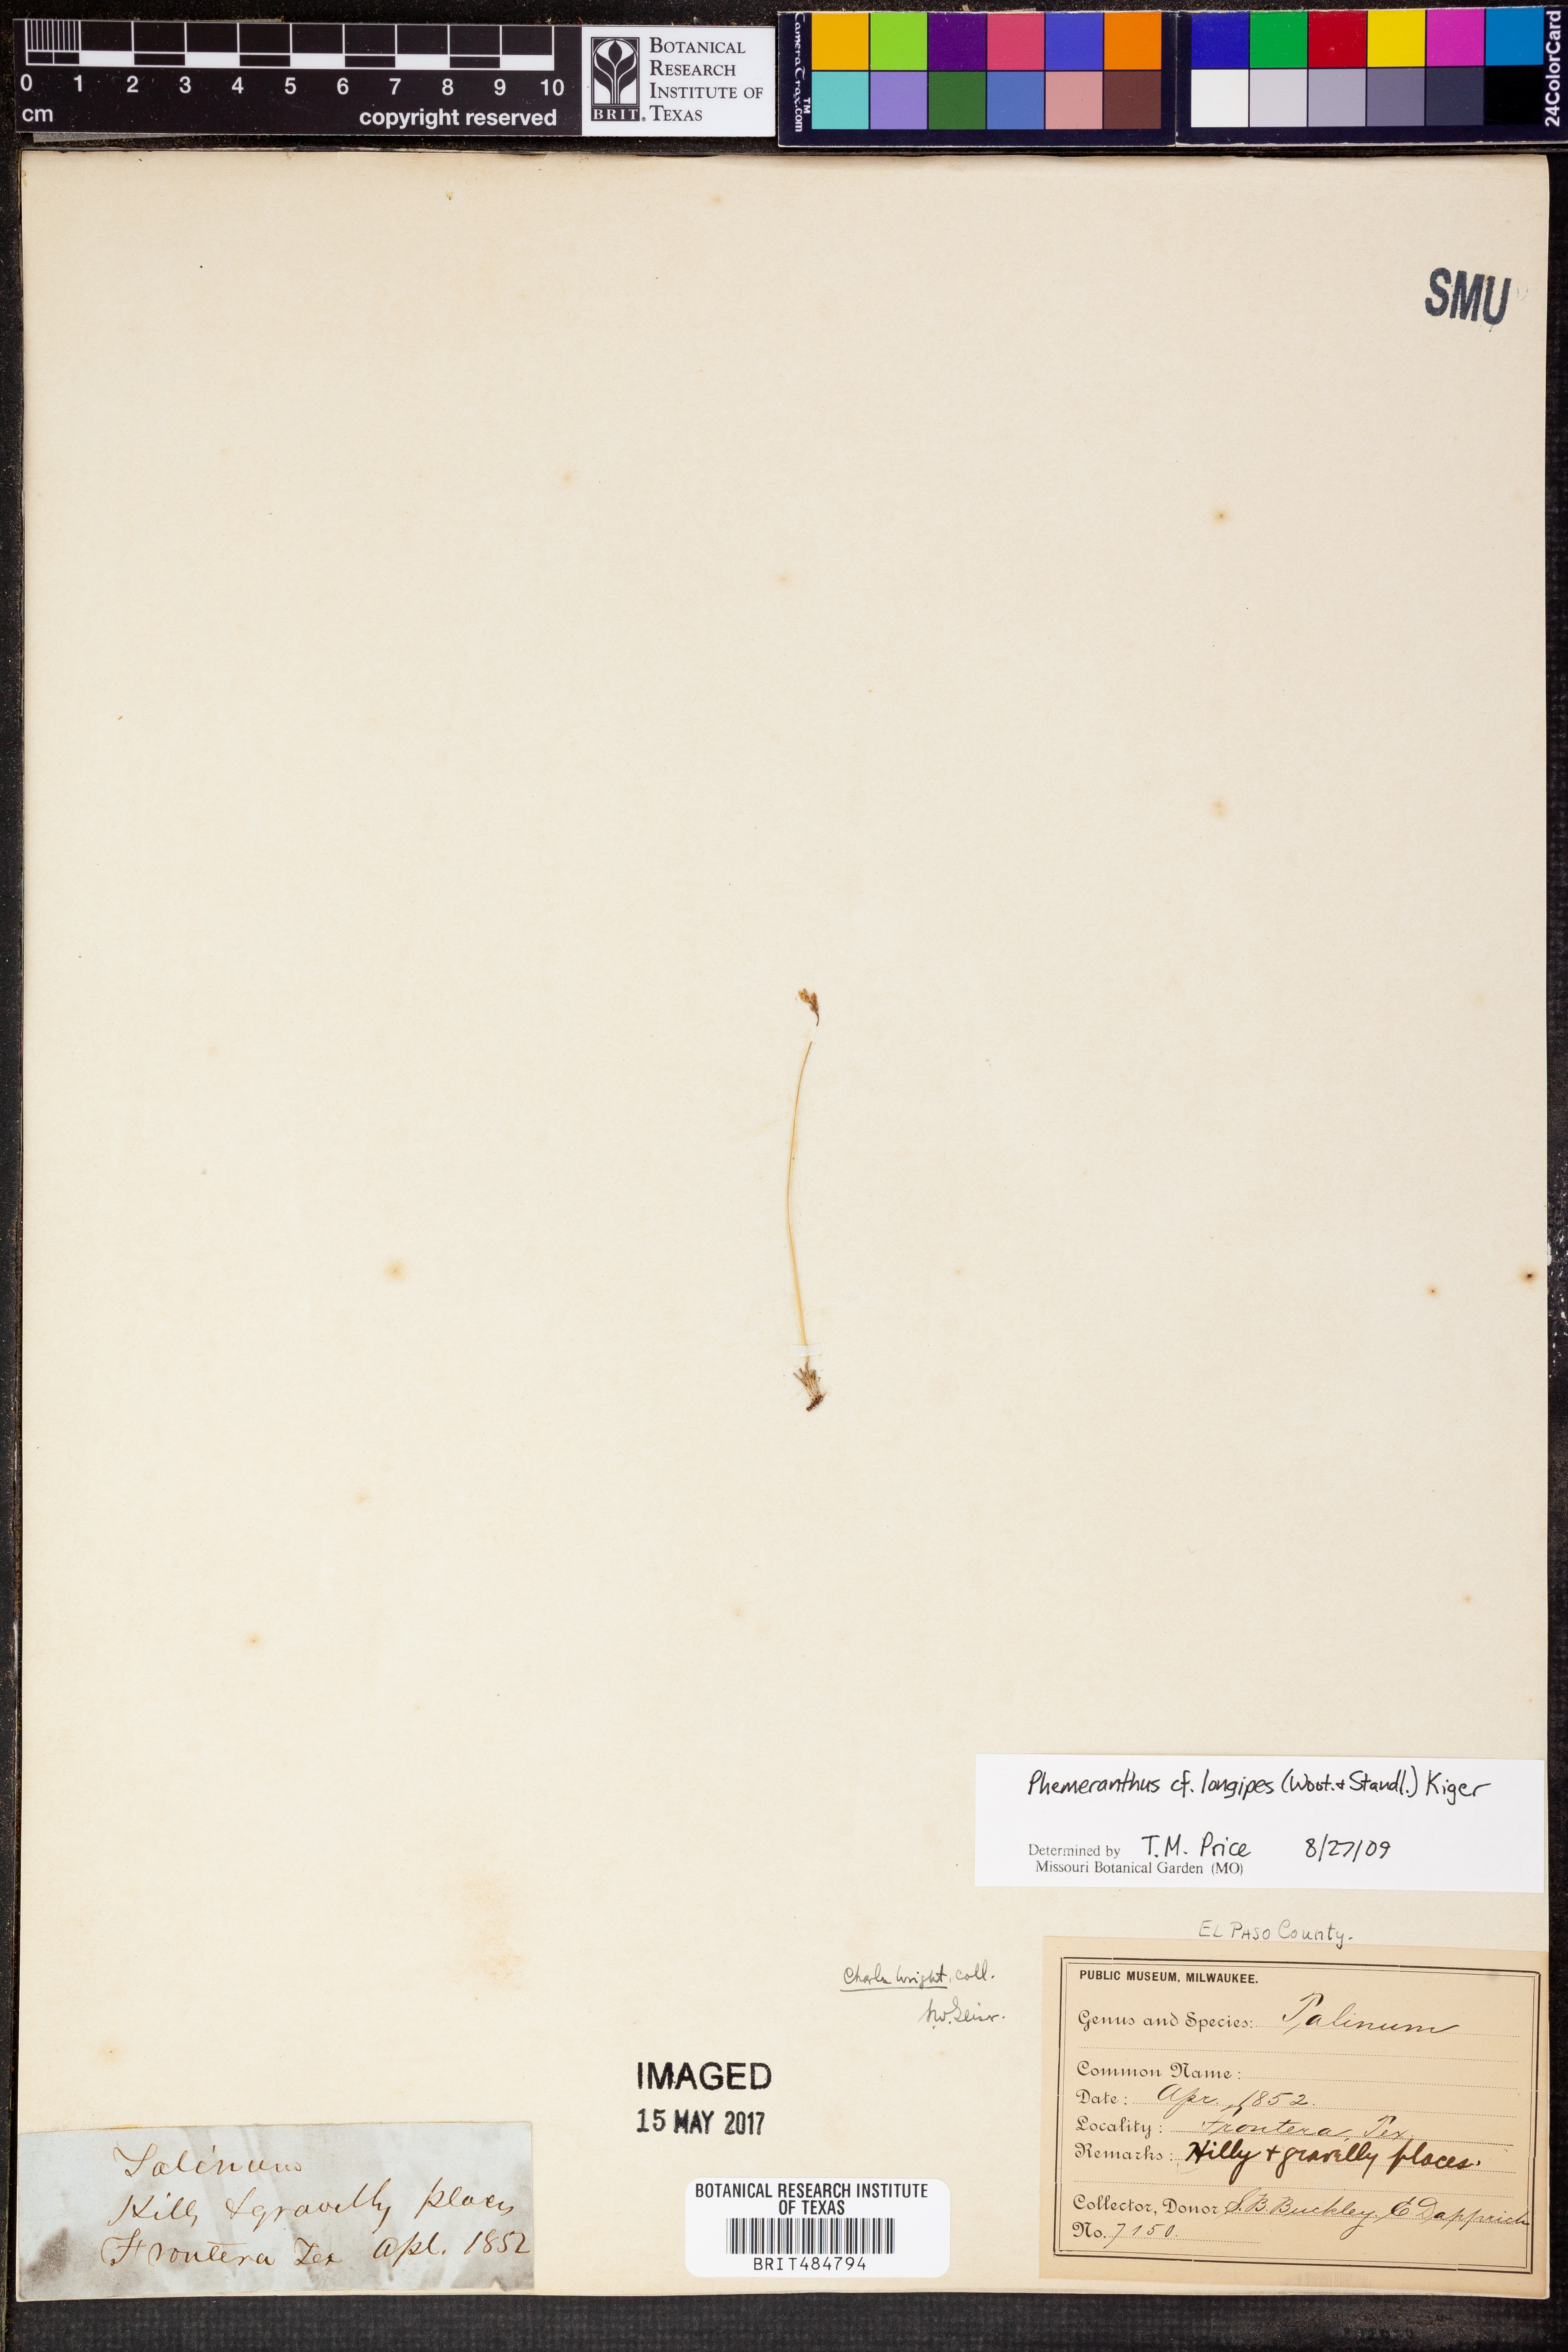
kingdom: Plantae
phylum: Tracheophyta
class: Magnoliopsida
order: Caryophyllales
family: Montiaceae
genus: Phemeranthus
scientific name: Phemeranthus longipes
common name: Pink fameflower
